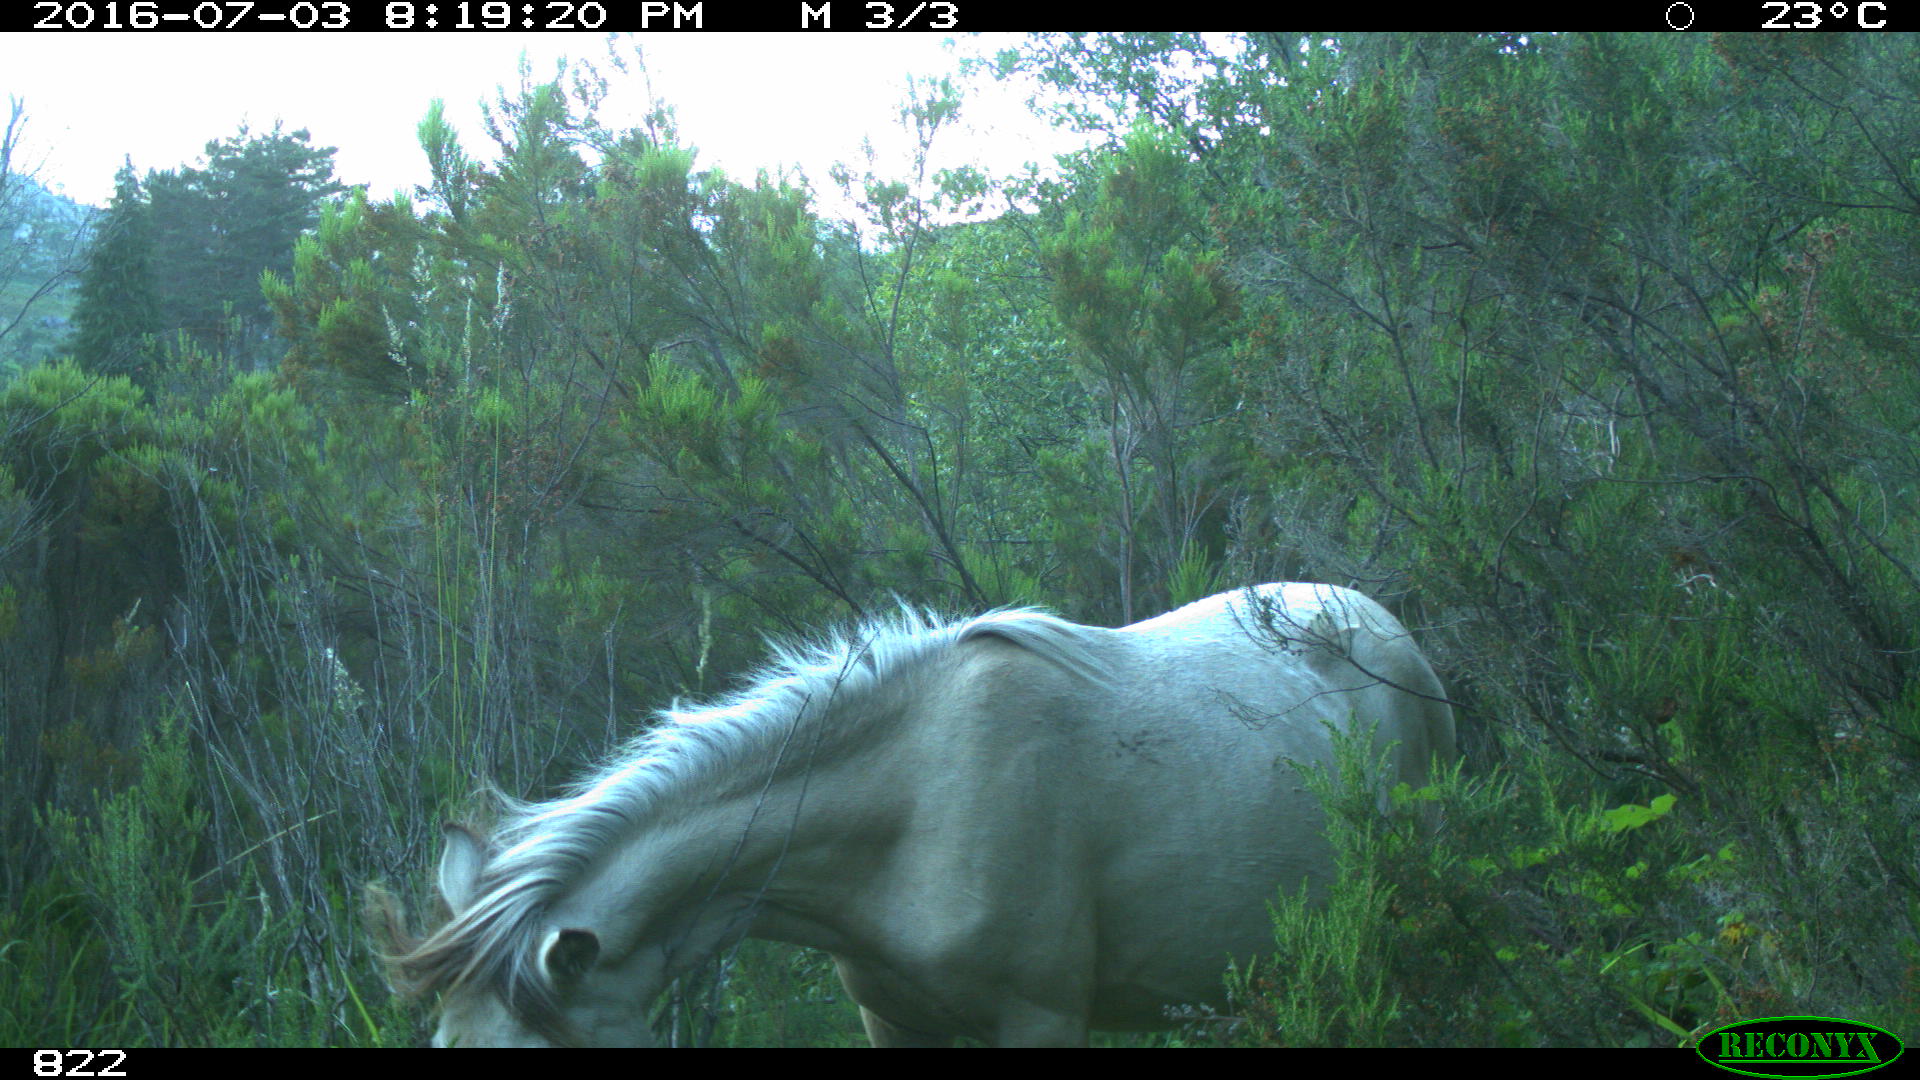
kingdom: Animalia
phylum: Chordata
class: Mammalia
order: Perissodactyla
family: Equidae
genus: Equus
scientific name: Equus caballus
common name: Horse
